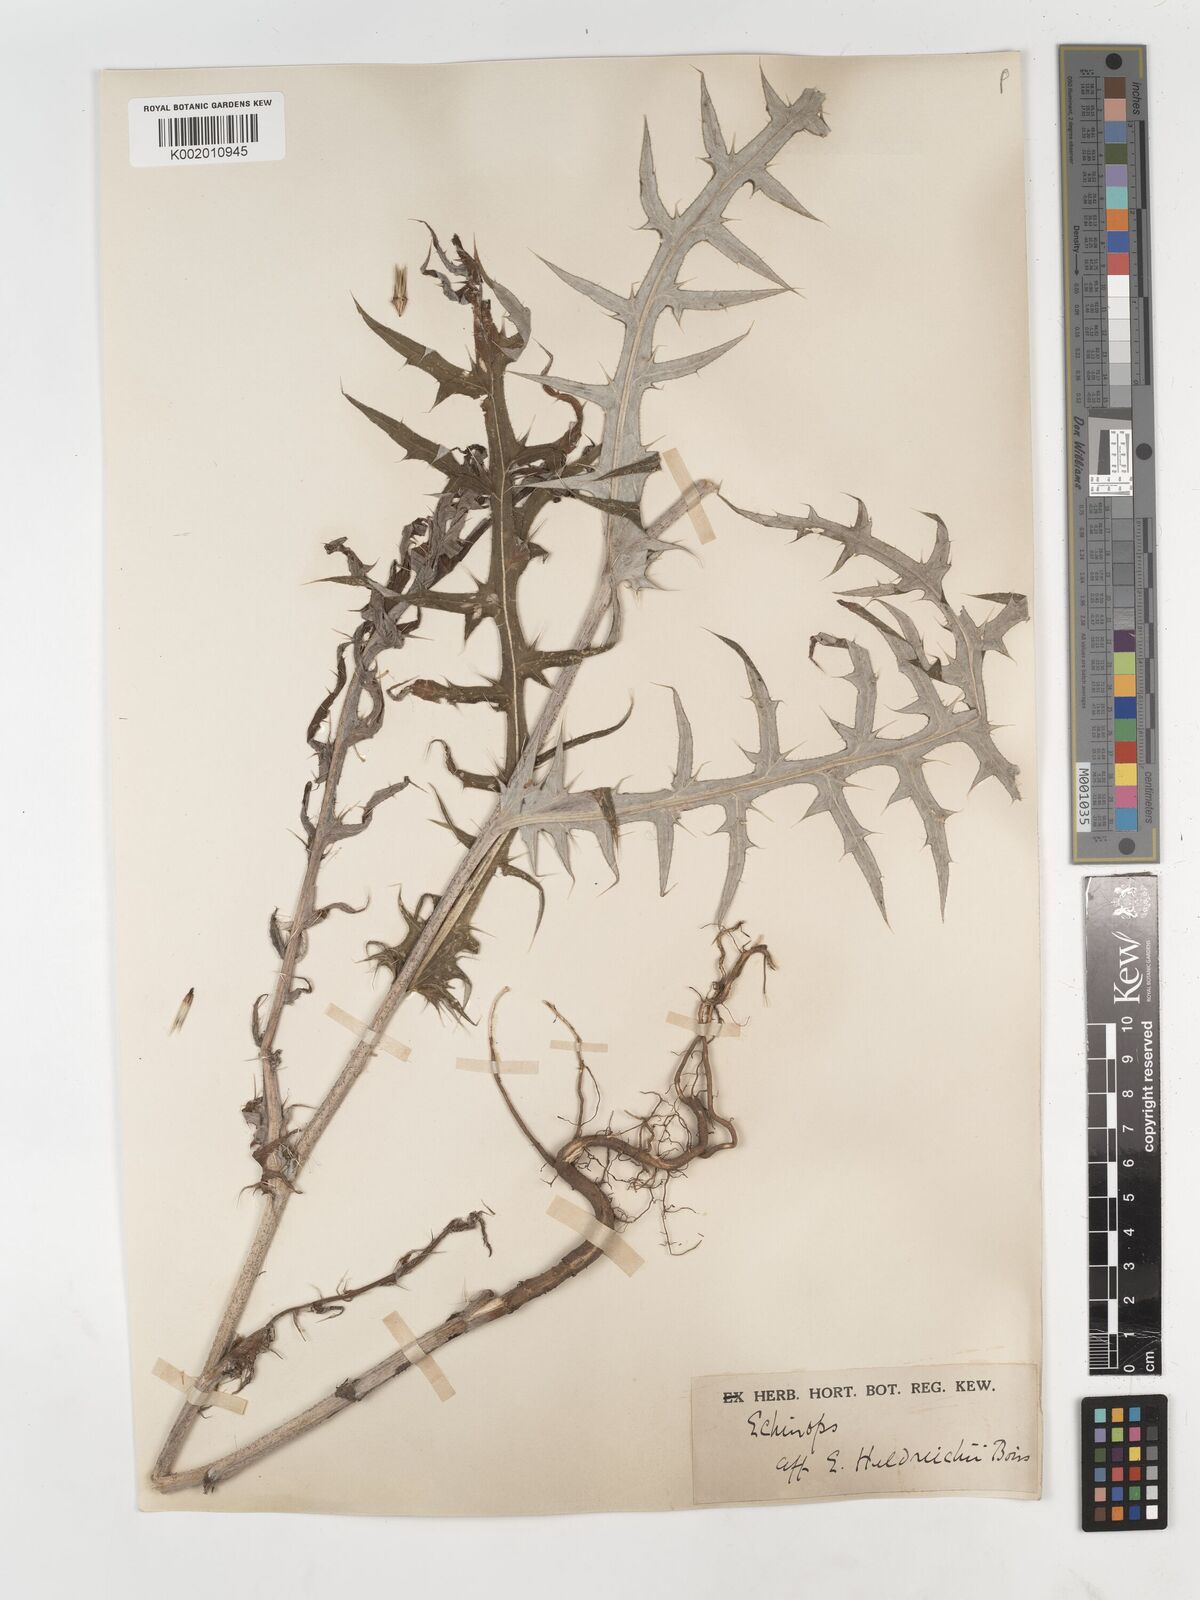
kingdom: Plantae
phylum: Tracheophyta
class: Magnoliopsida
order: Asterales
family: Asteraceae
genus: Echinops
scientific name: Echinops
